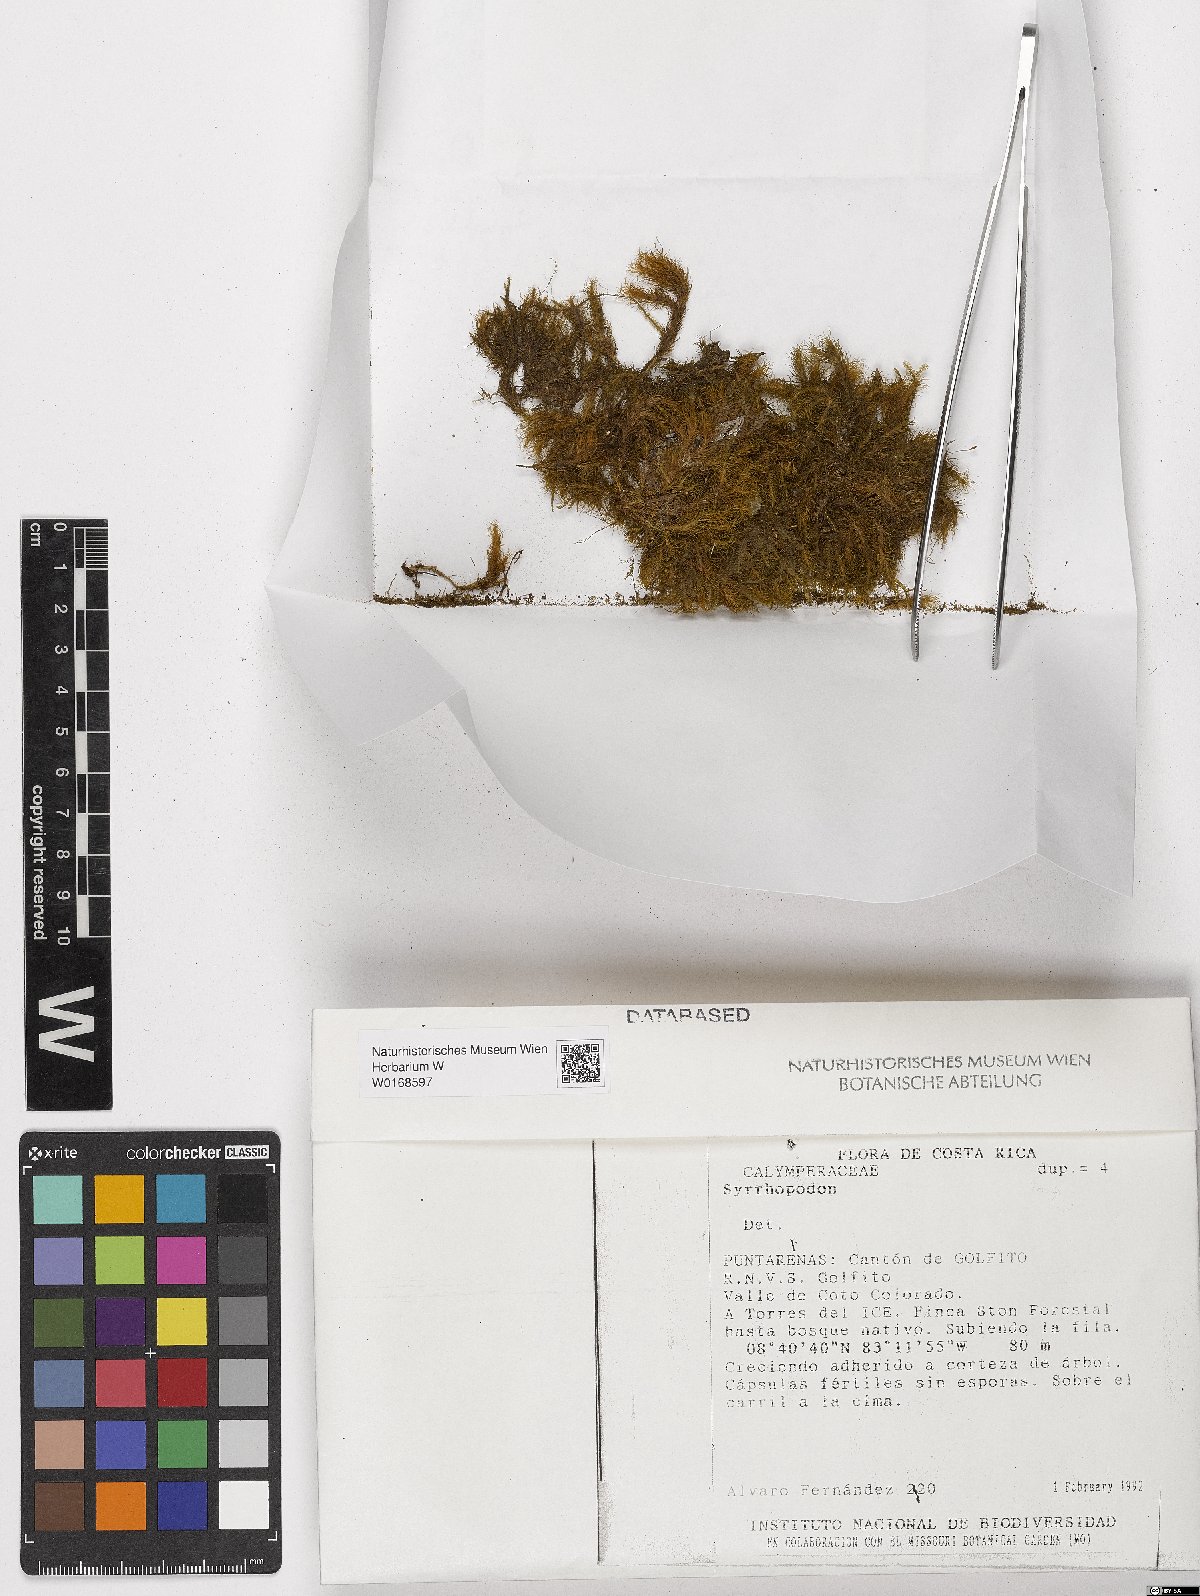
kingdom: Plantae
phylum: Bryophyta
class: Bryopsida
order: Dicranales
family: Calymperaceae
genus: Syrrhopodon
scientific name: Syrrhopodon
